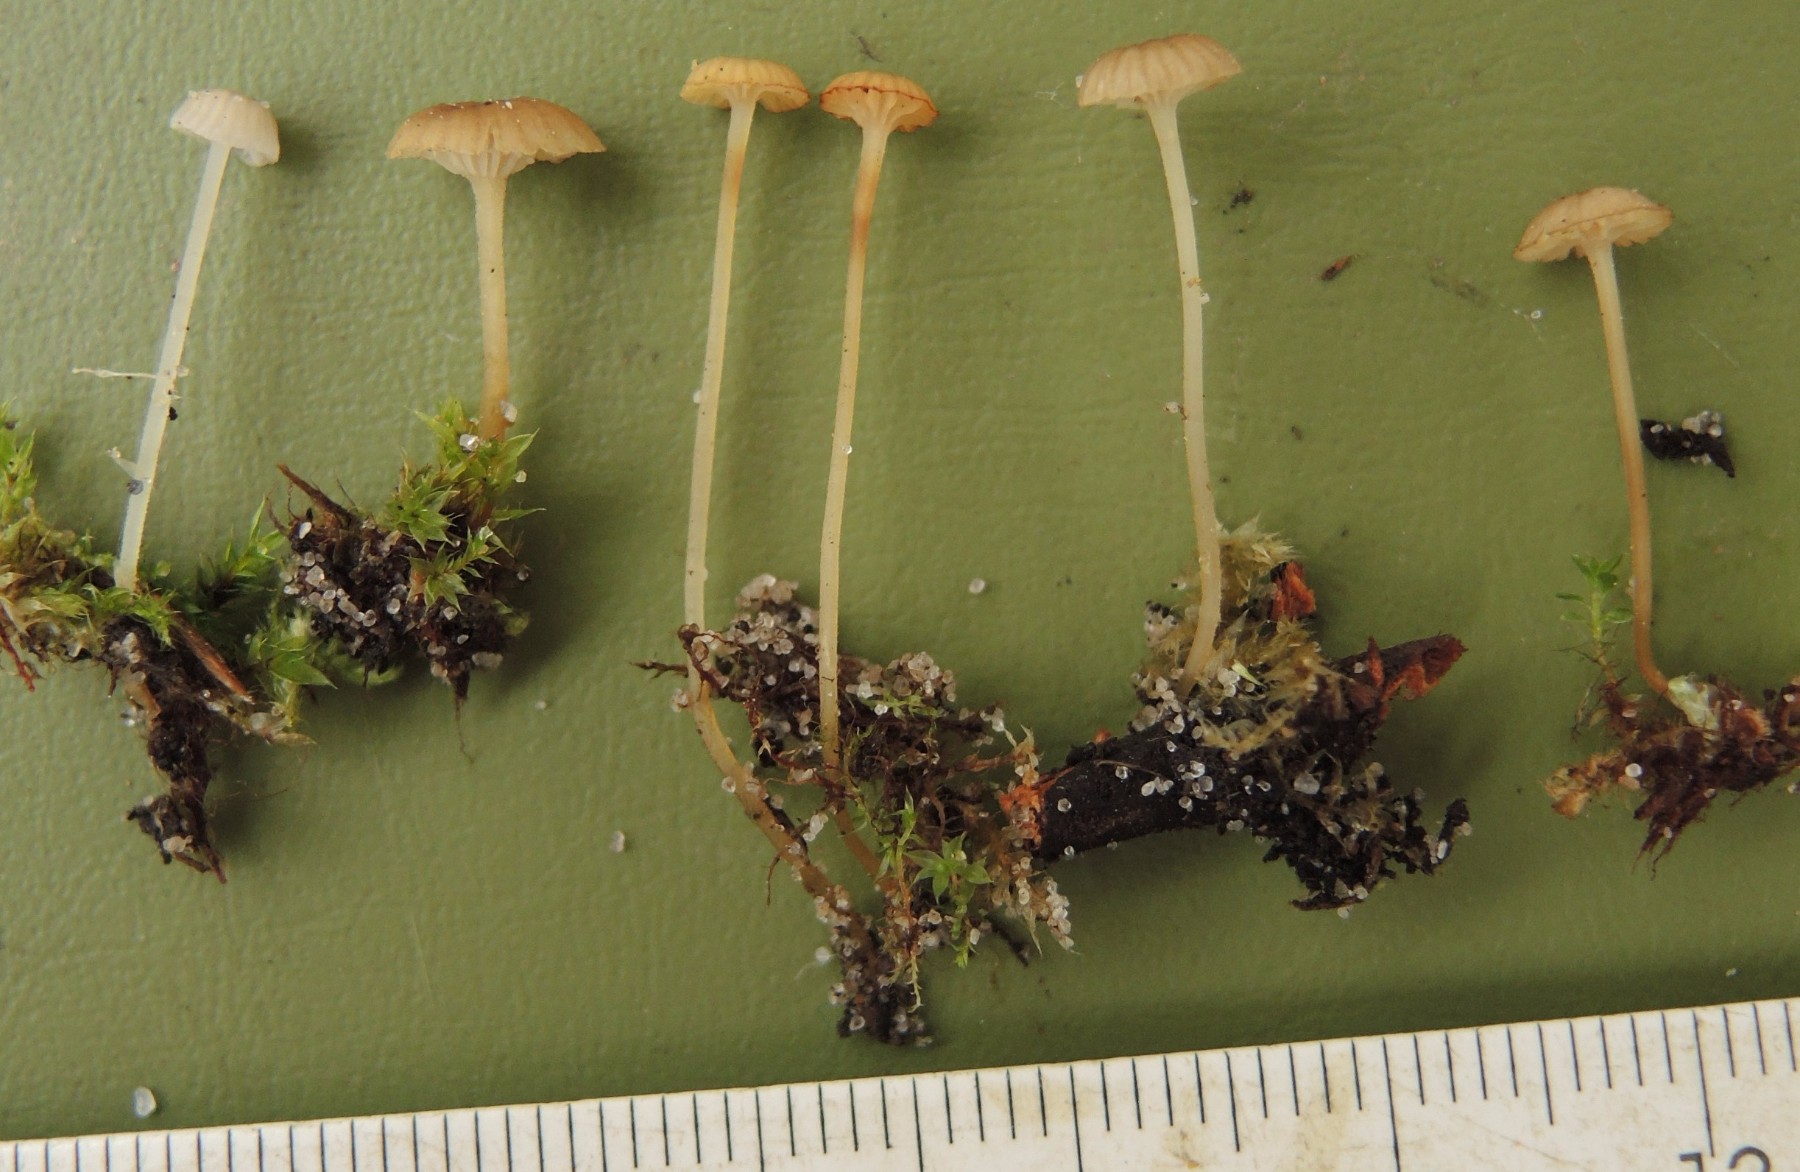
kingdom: Fungi
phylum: Basidiomycota
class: Agaricomycetes
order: Agaricales
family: Porotheleaceae
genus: Phloeomana
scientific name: Phloeomana speirea
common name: kvist-huesvamp
